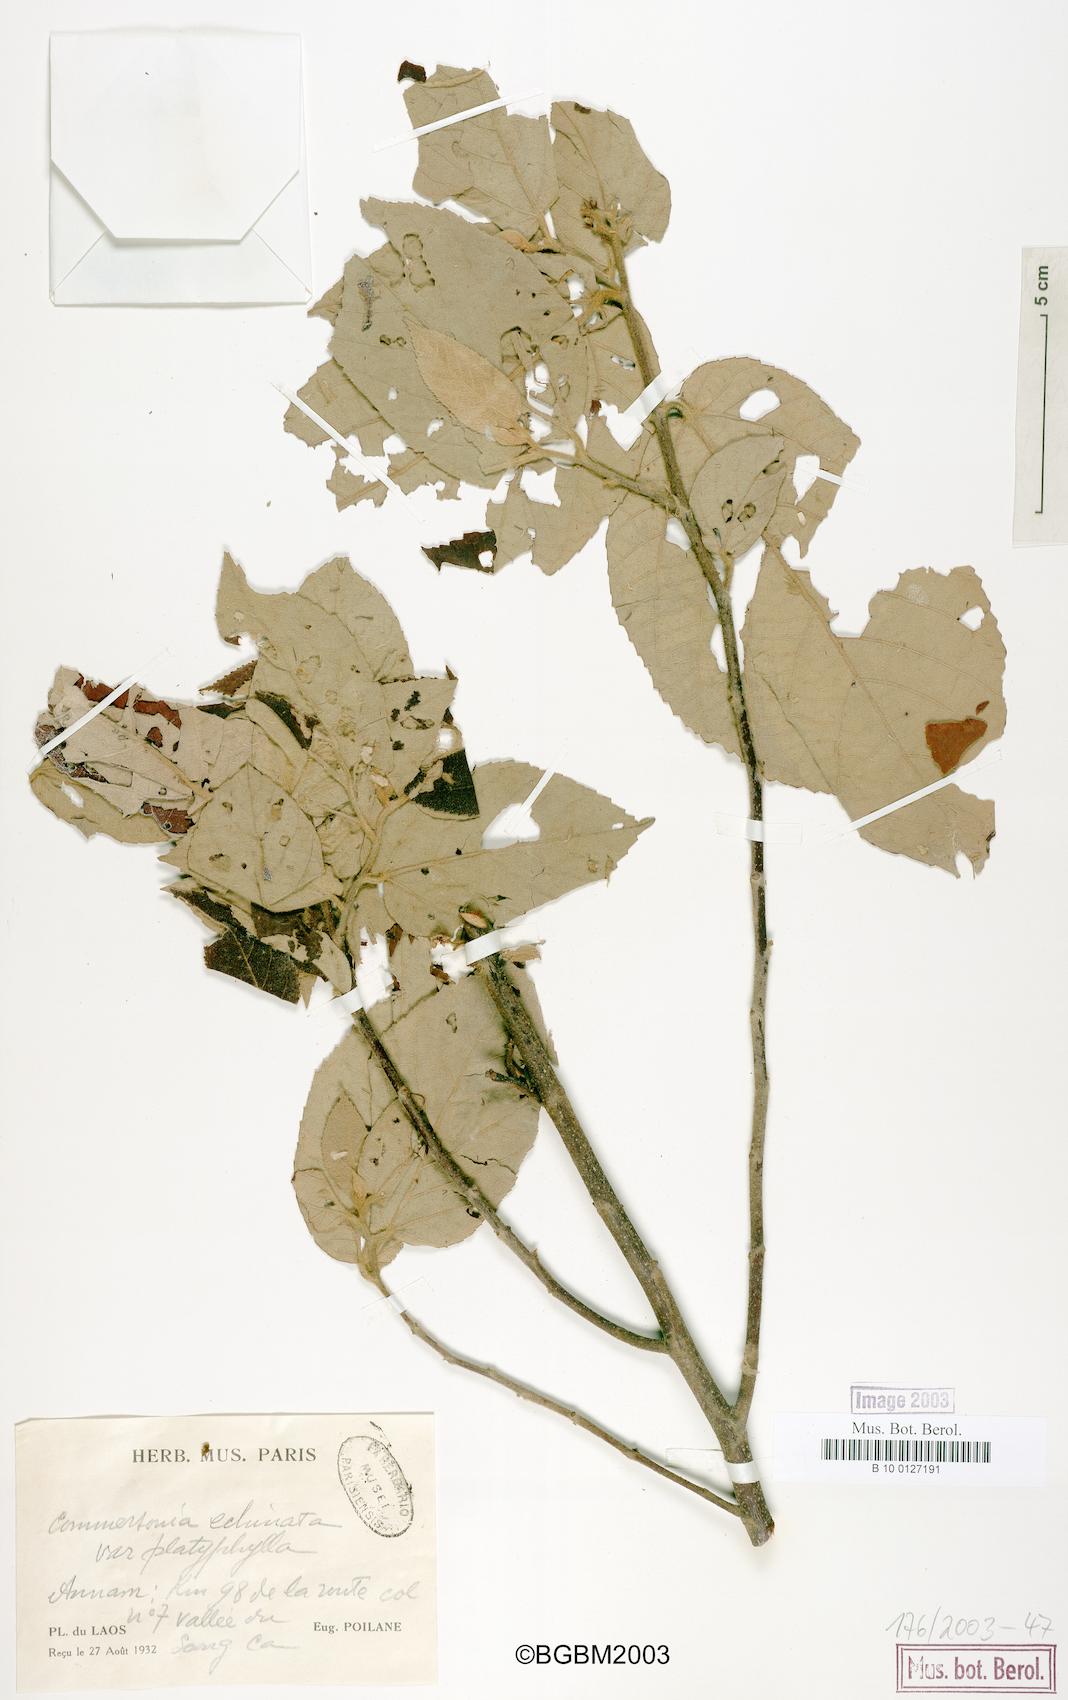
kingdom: Plantae
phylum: Tracheophyta
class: Magnoliopsida
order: Malvales
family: Malvaceae
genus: Commersonia
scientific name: Commersonia bartramia
